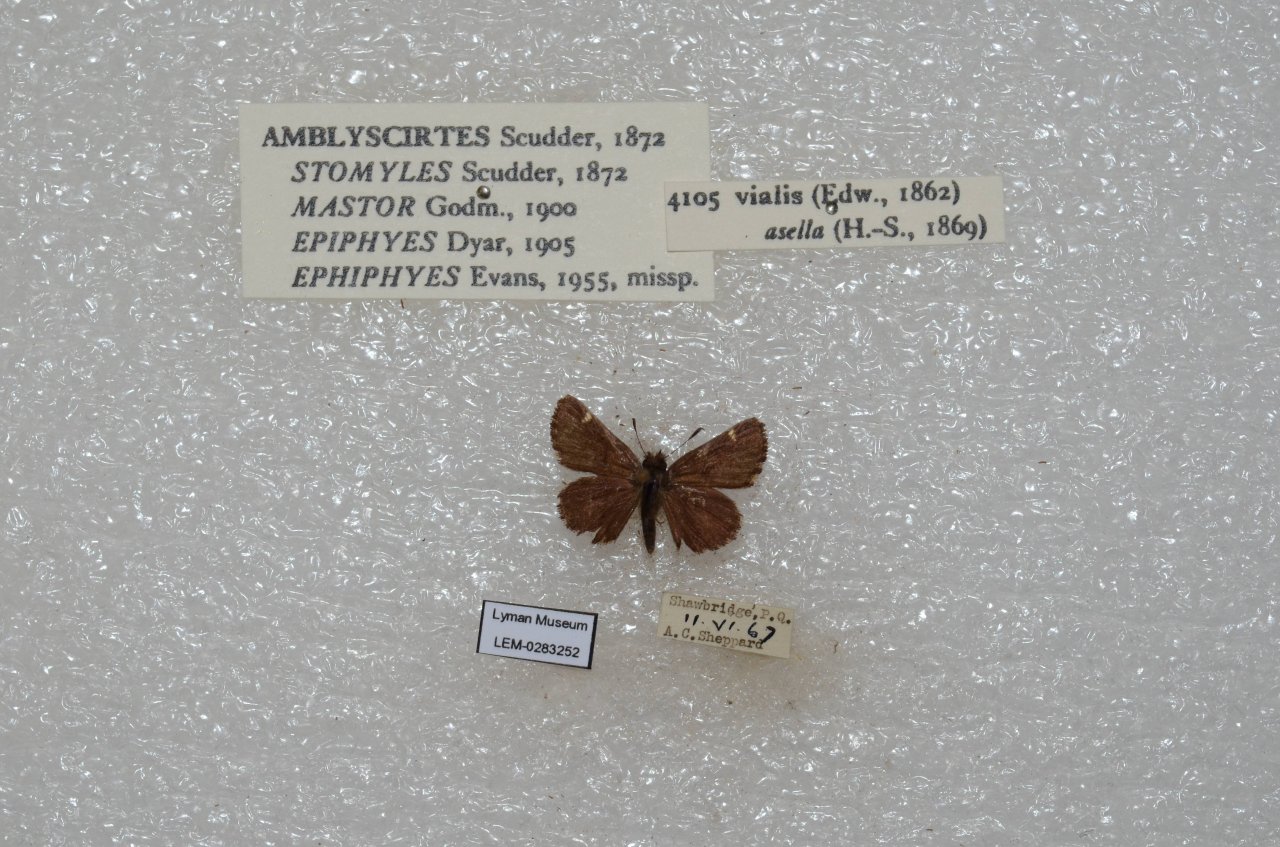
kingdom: Animalia
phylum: Arthropoda
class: Insecta
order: Lepidoptera
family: Hesperiidae
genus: Mastor
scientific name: Mastor vialis
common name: Common Roadside-Skipper
